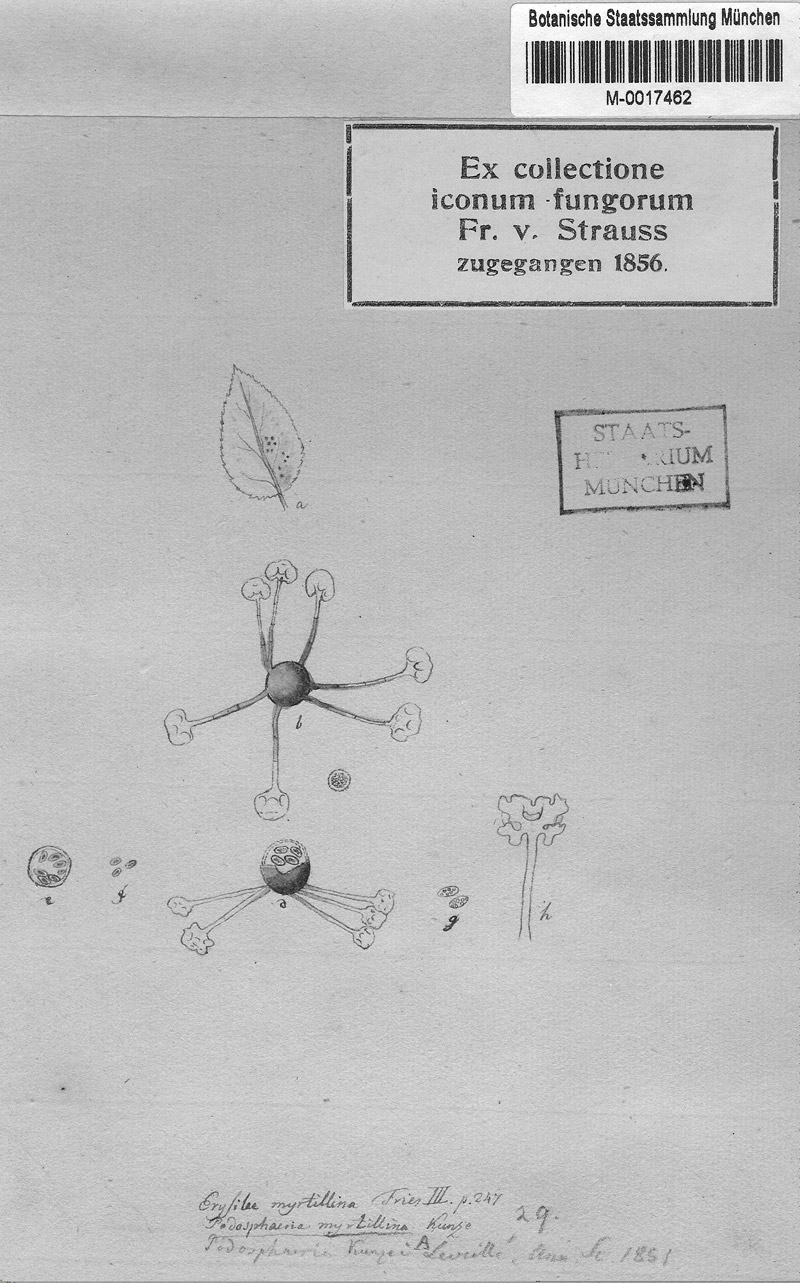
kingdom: Fungi
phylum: Ascomycota
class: Leotiomycetes
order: Helotiales
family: Erysiphaceae
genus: Podosphaera
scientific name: Podosphaera myrtillina
